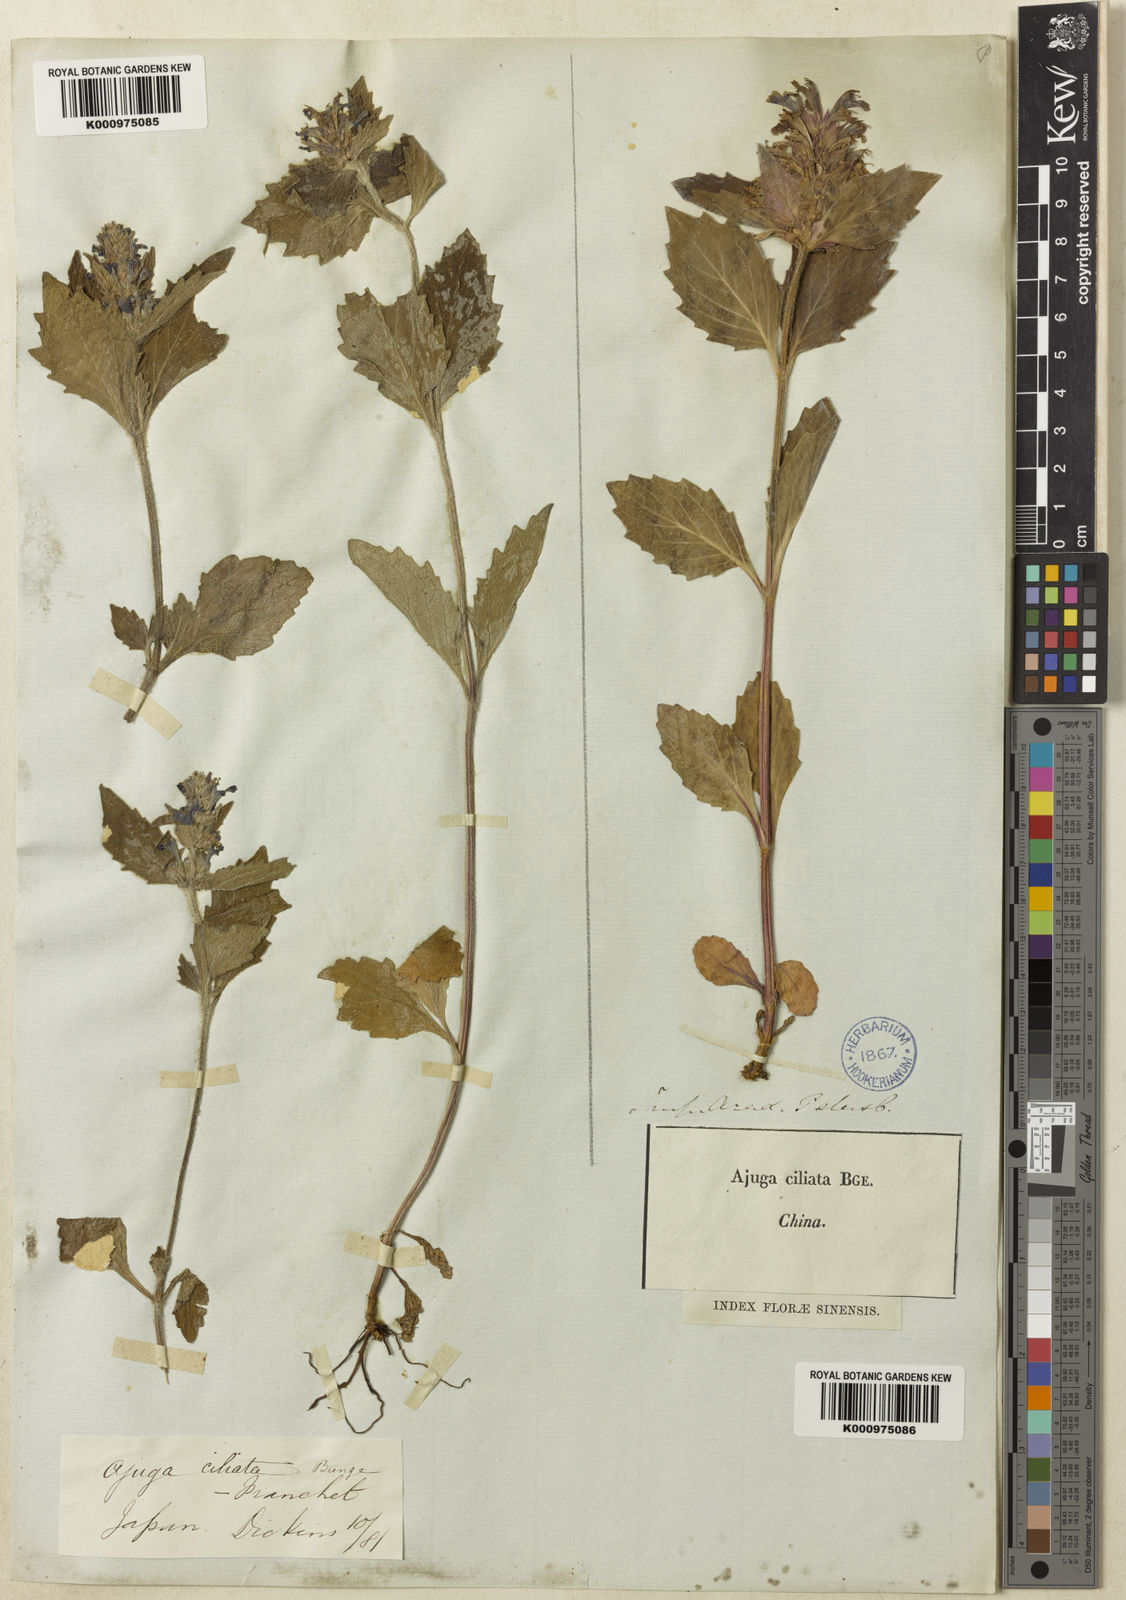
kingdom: Plantae
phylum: Tracheophyta
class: Magnoliopsida
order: Lamiales
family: Lamiaceae
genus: Ajuga
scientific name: Ajuga ciliata
